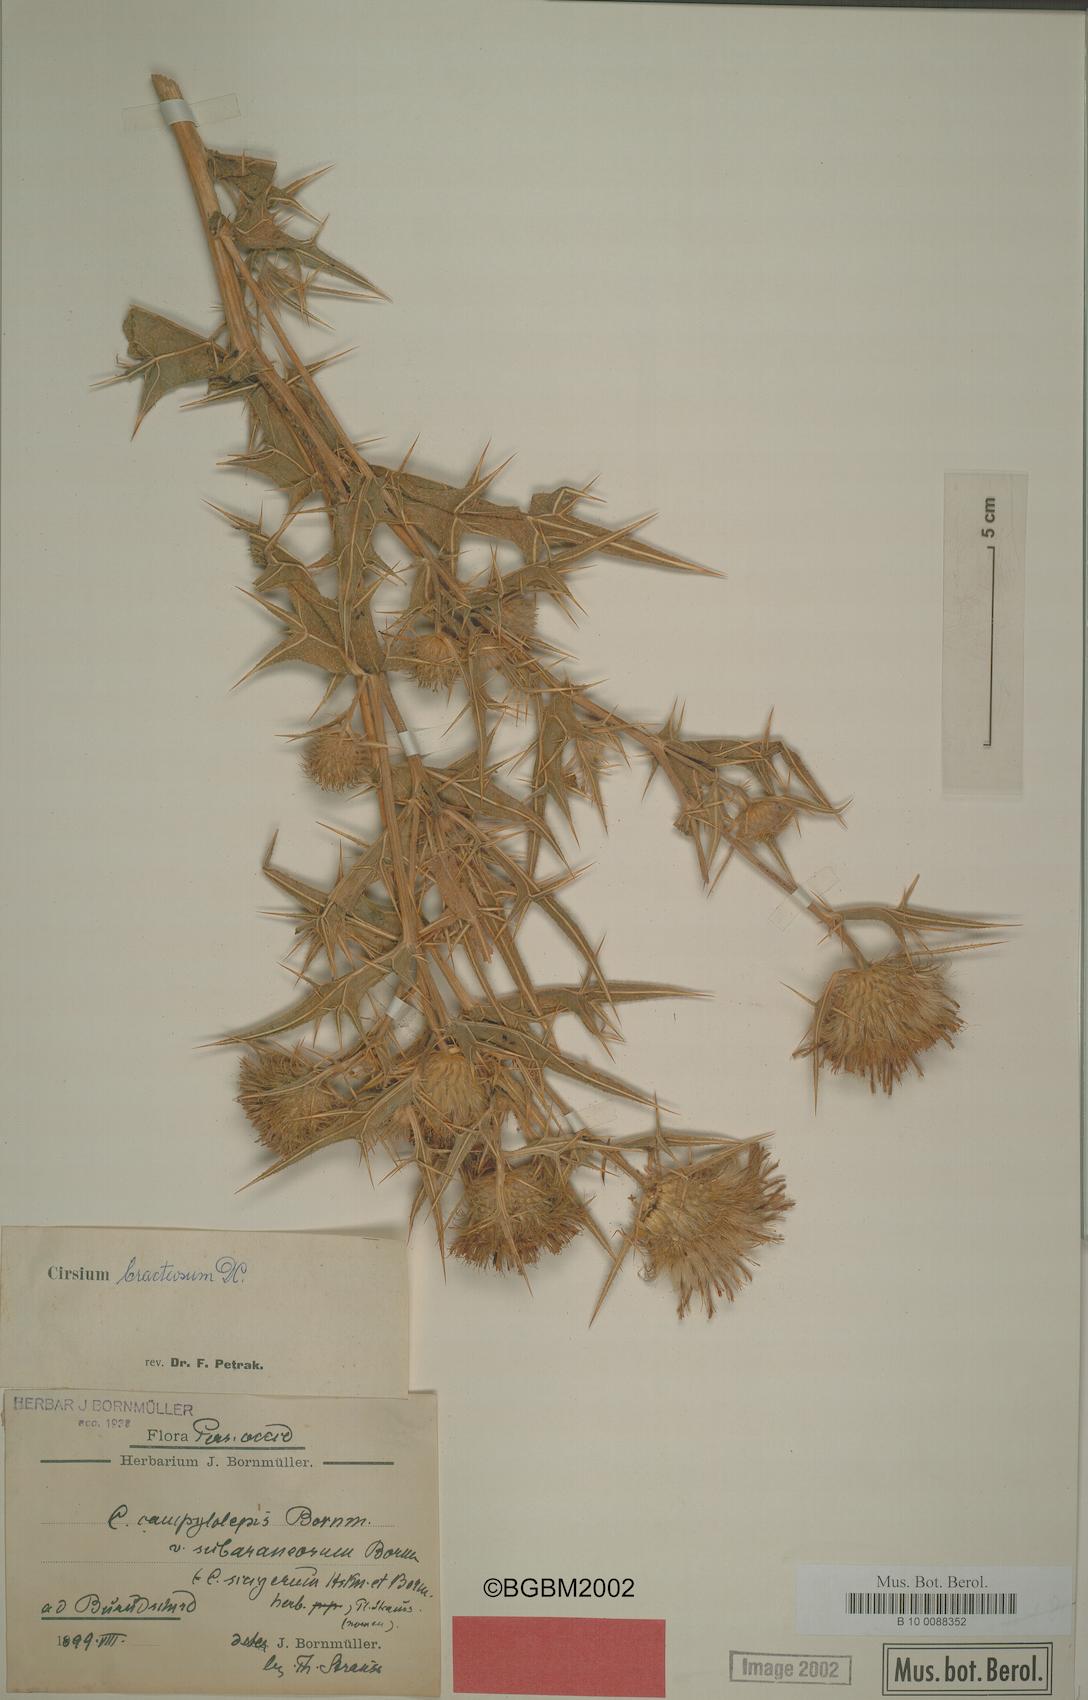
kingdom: Plantae
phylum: Tracheophyta
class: Magnoliopsida
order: Asterales
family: Asteraceae
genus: Lophiolepis
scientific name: Lophiolepis bracteosa
